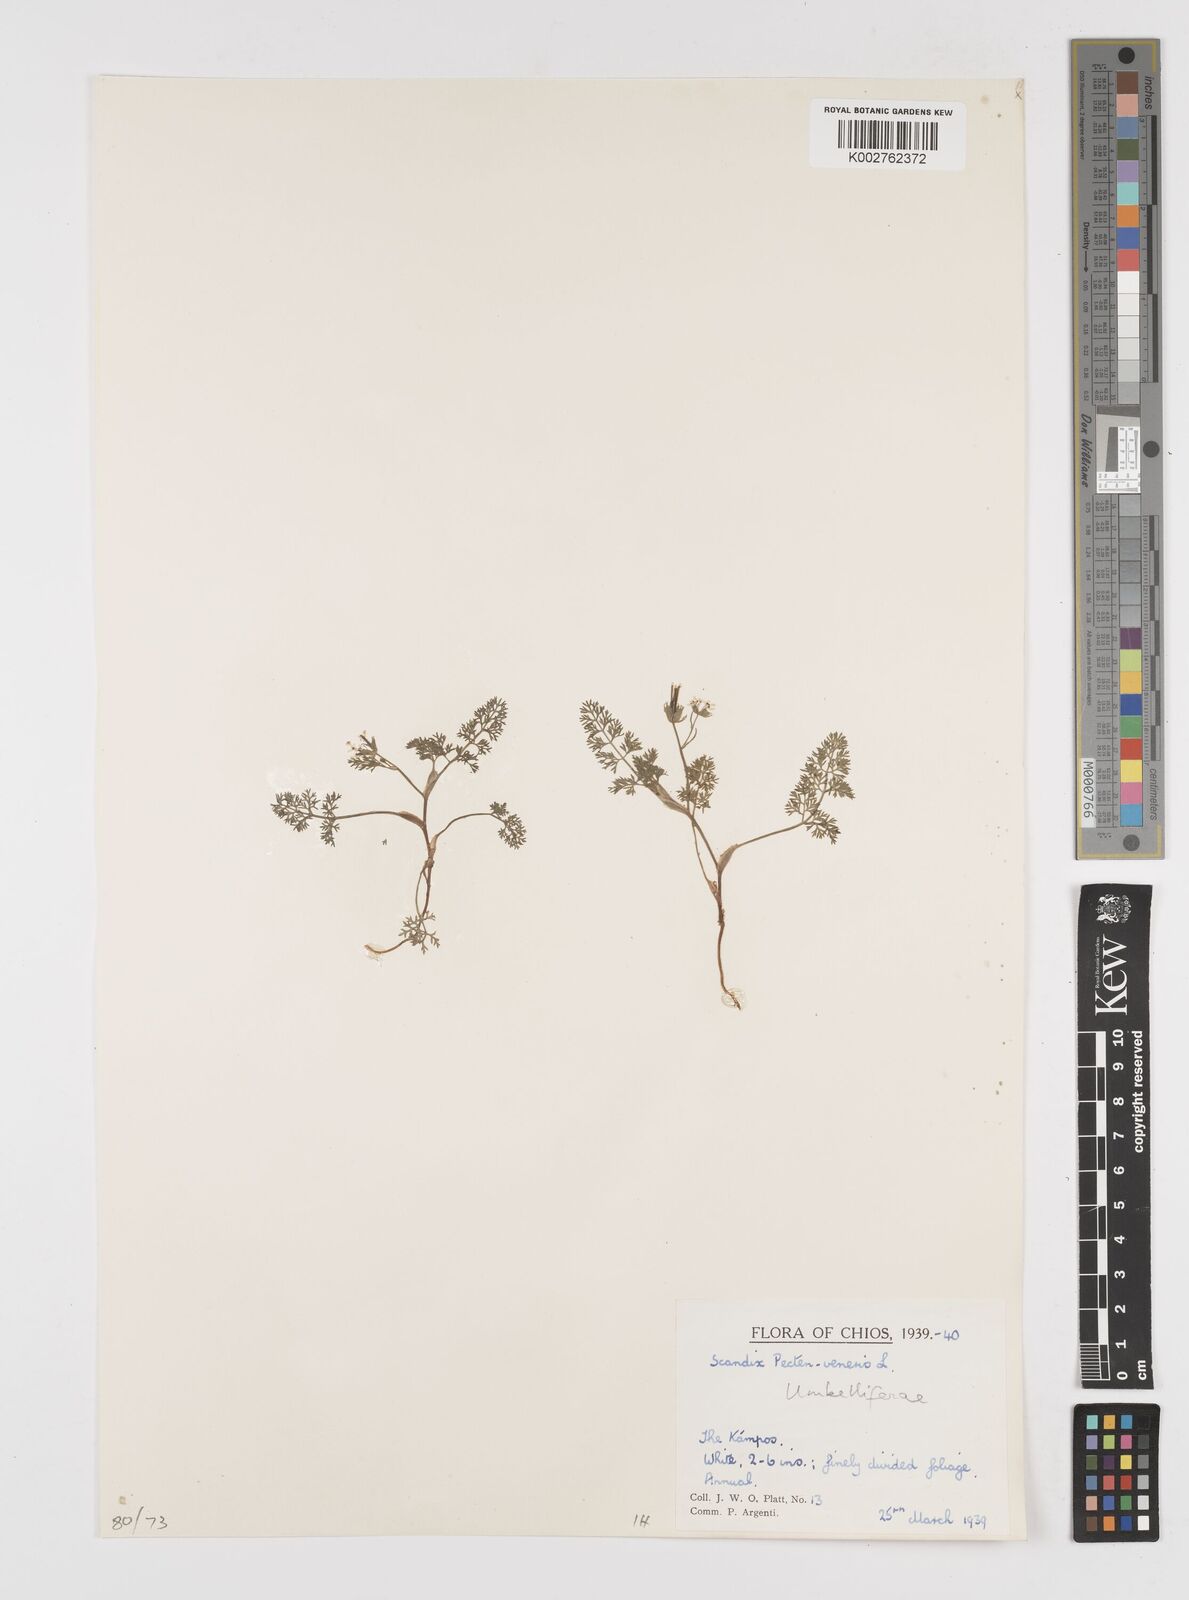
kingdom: Plantae
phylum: Tracheophyta
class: Magnoliopsida
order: Apiales
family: Apiaceae
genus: Scandix
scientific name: Scandix pecten-veneris
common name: Shepherd's-needle
